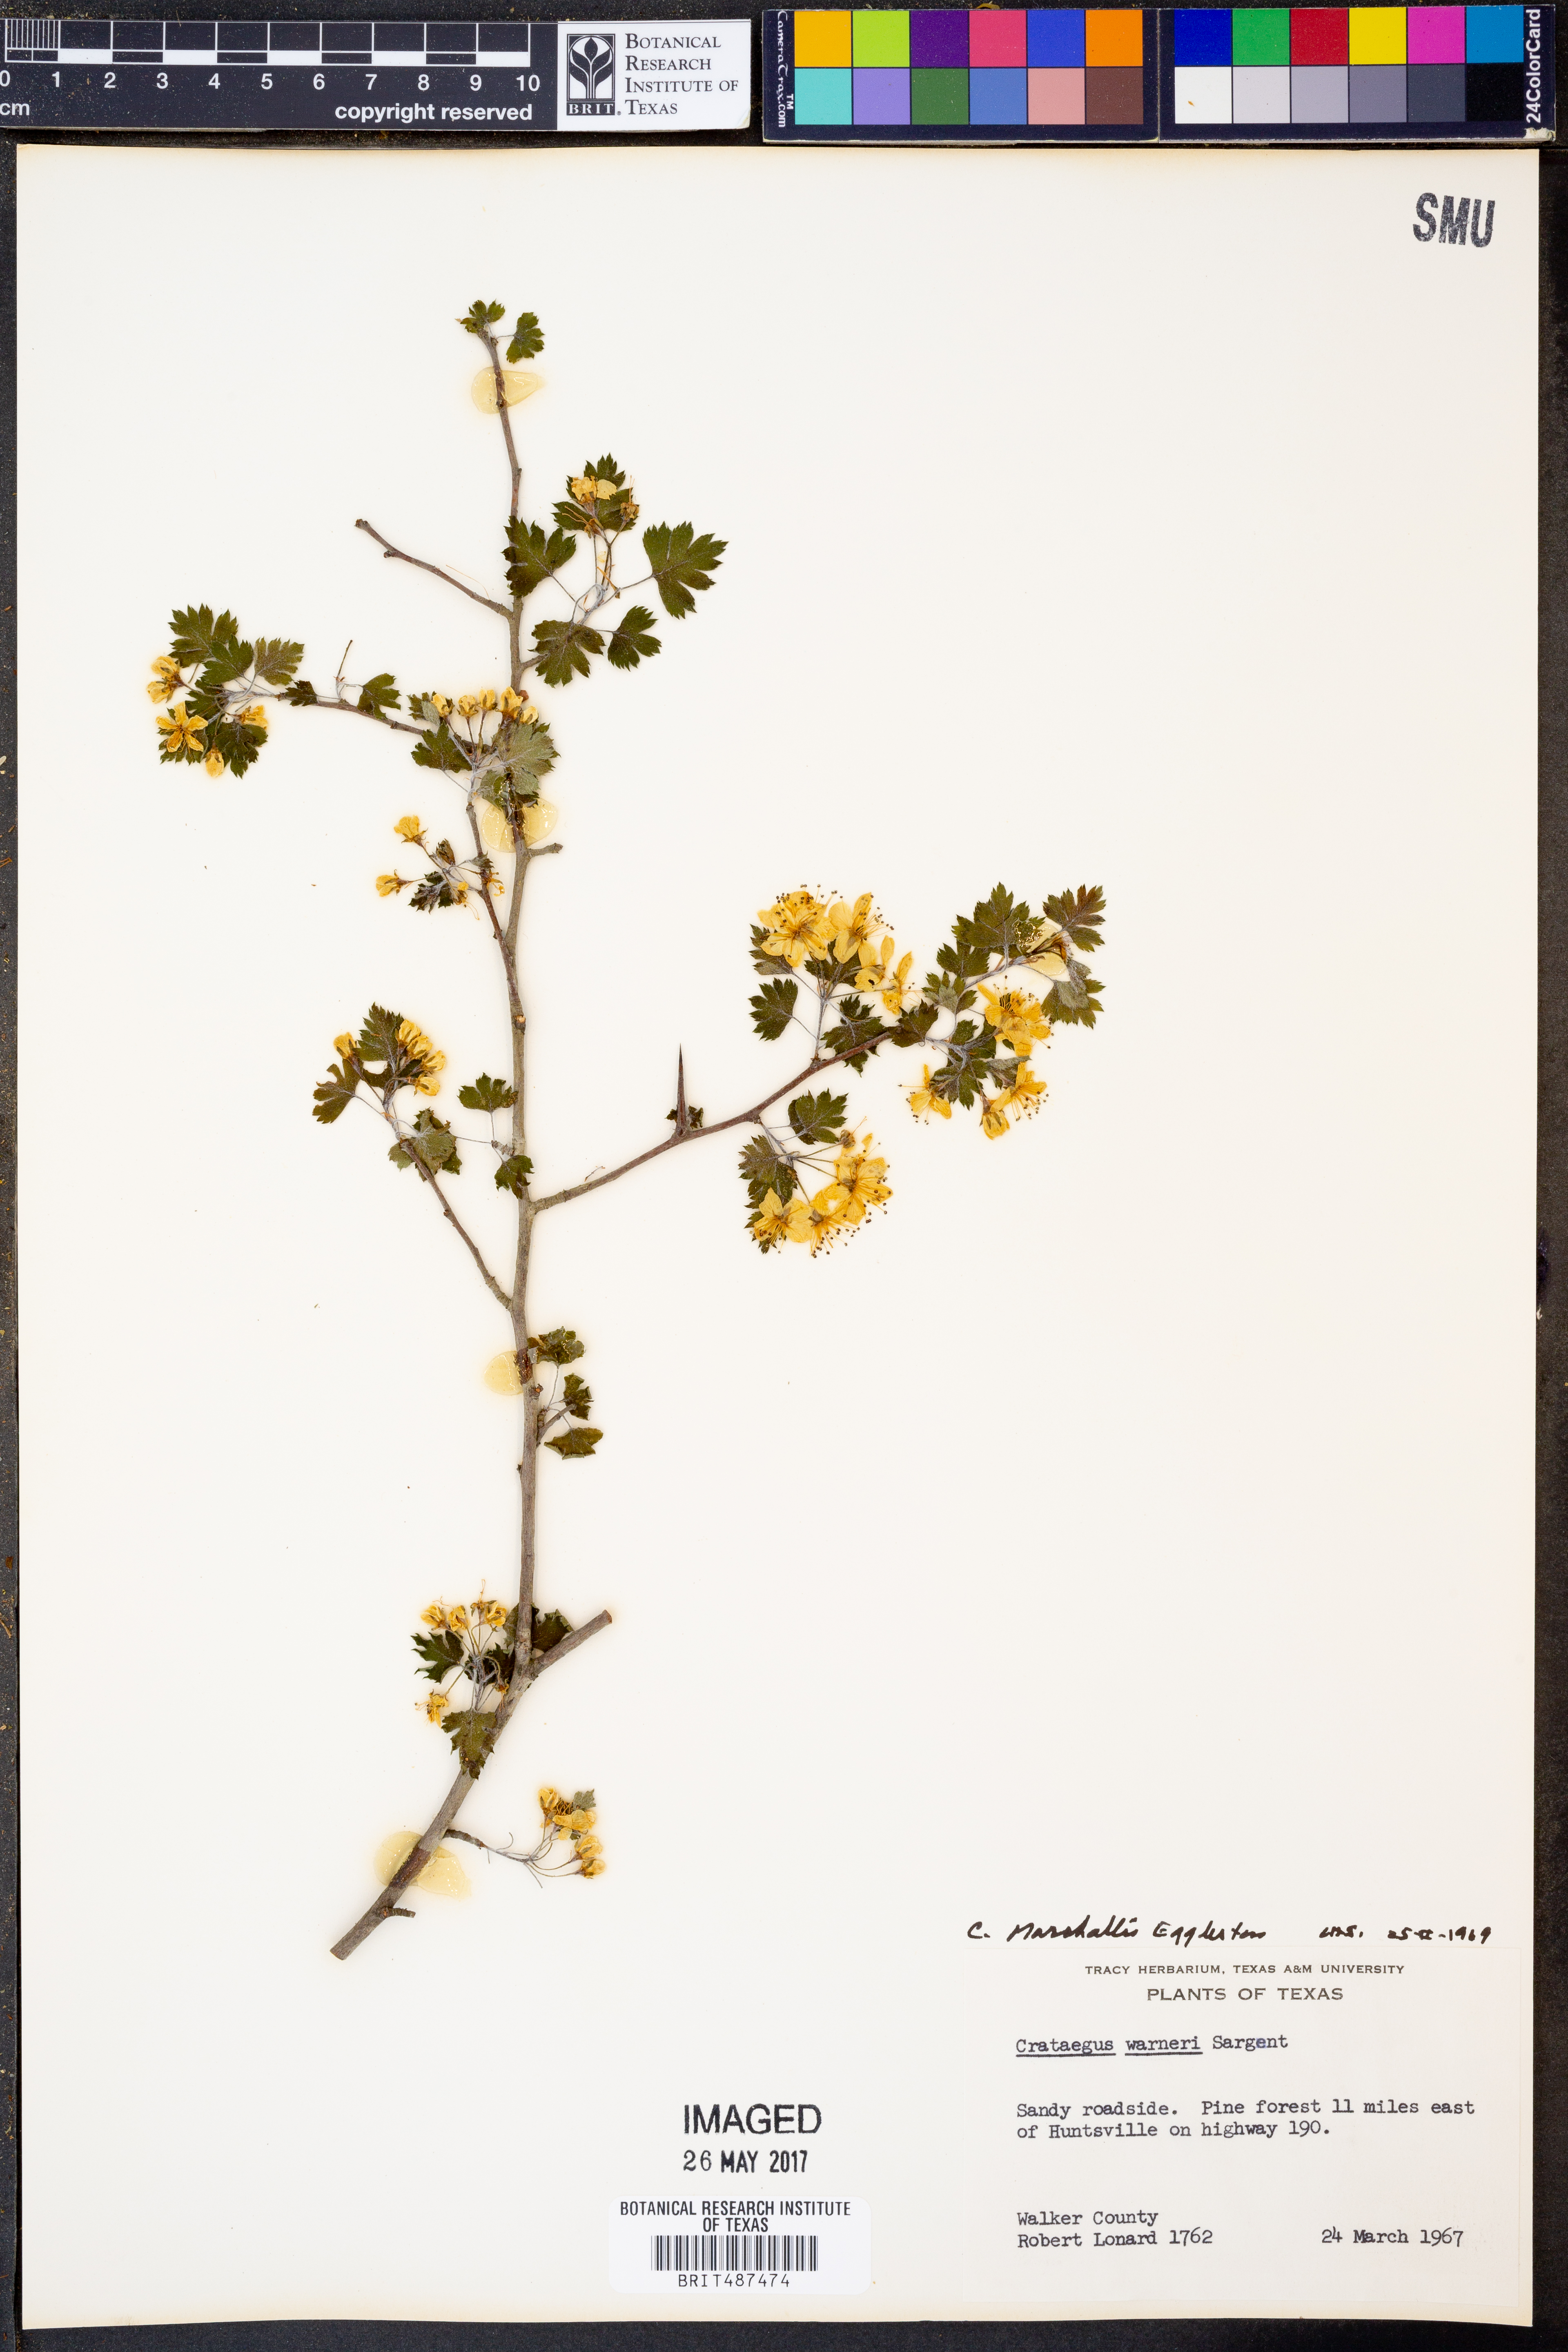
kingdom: Plantae
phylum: Tracheophyta
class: Magnoliopsida
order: Rosales
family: Rosaceae
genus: Crataegus
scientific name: Crataegus warneri
